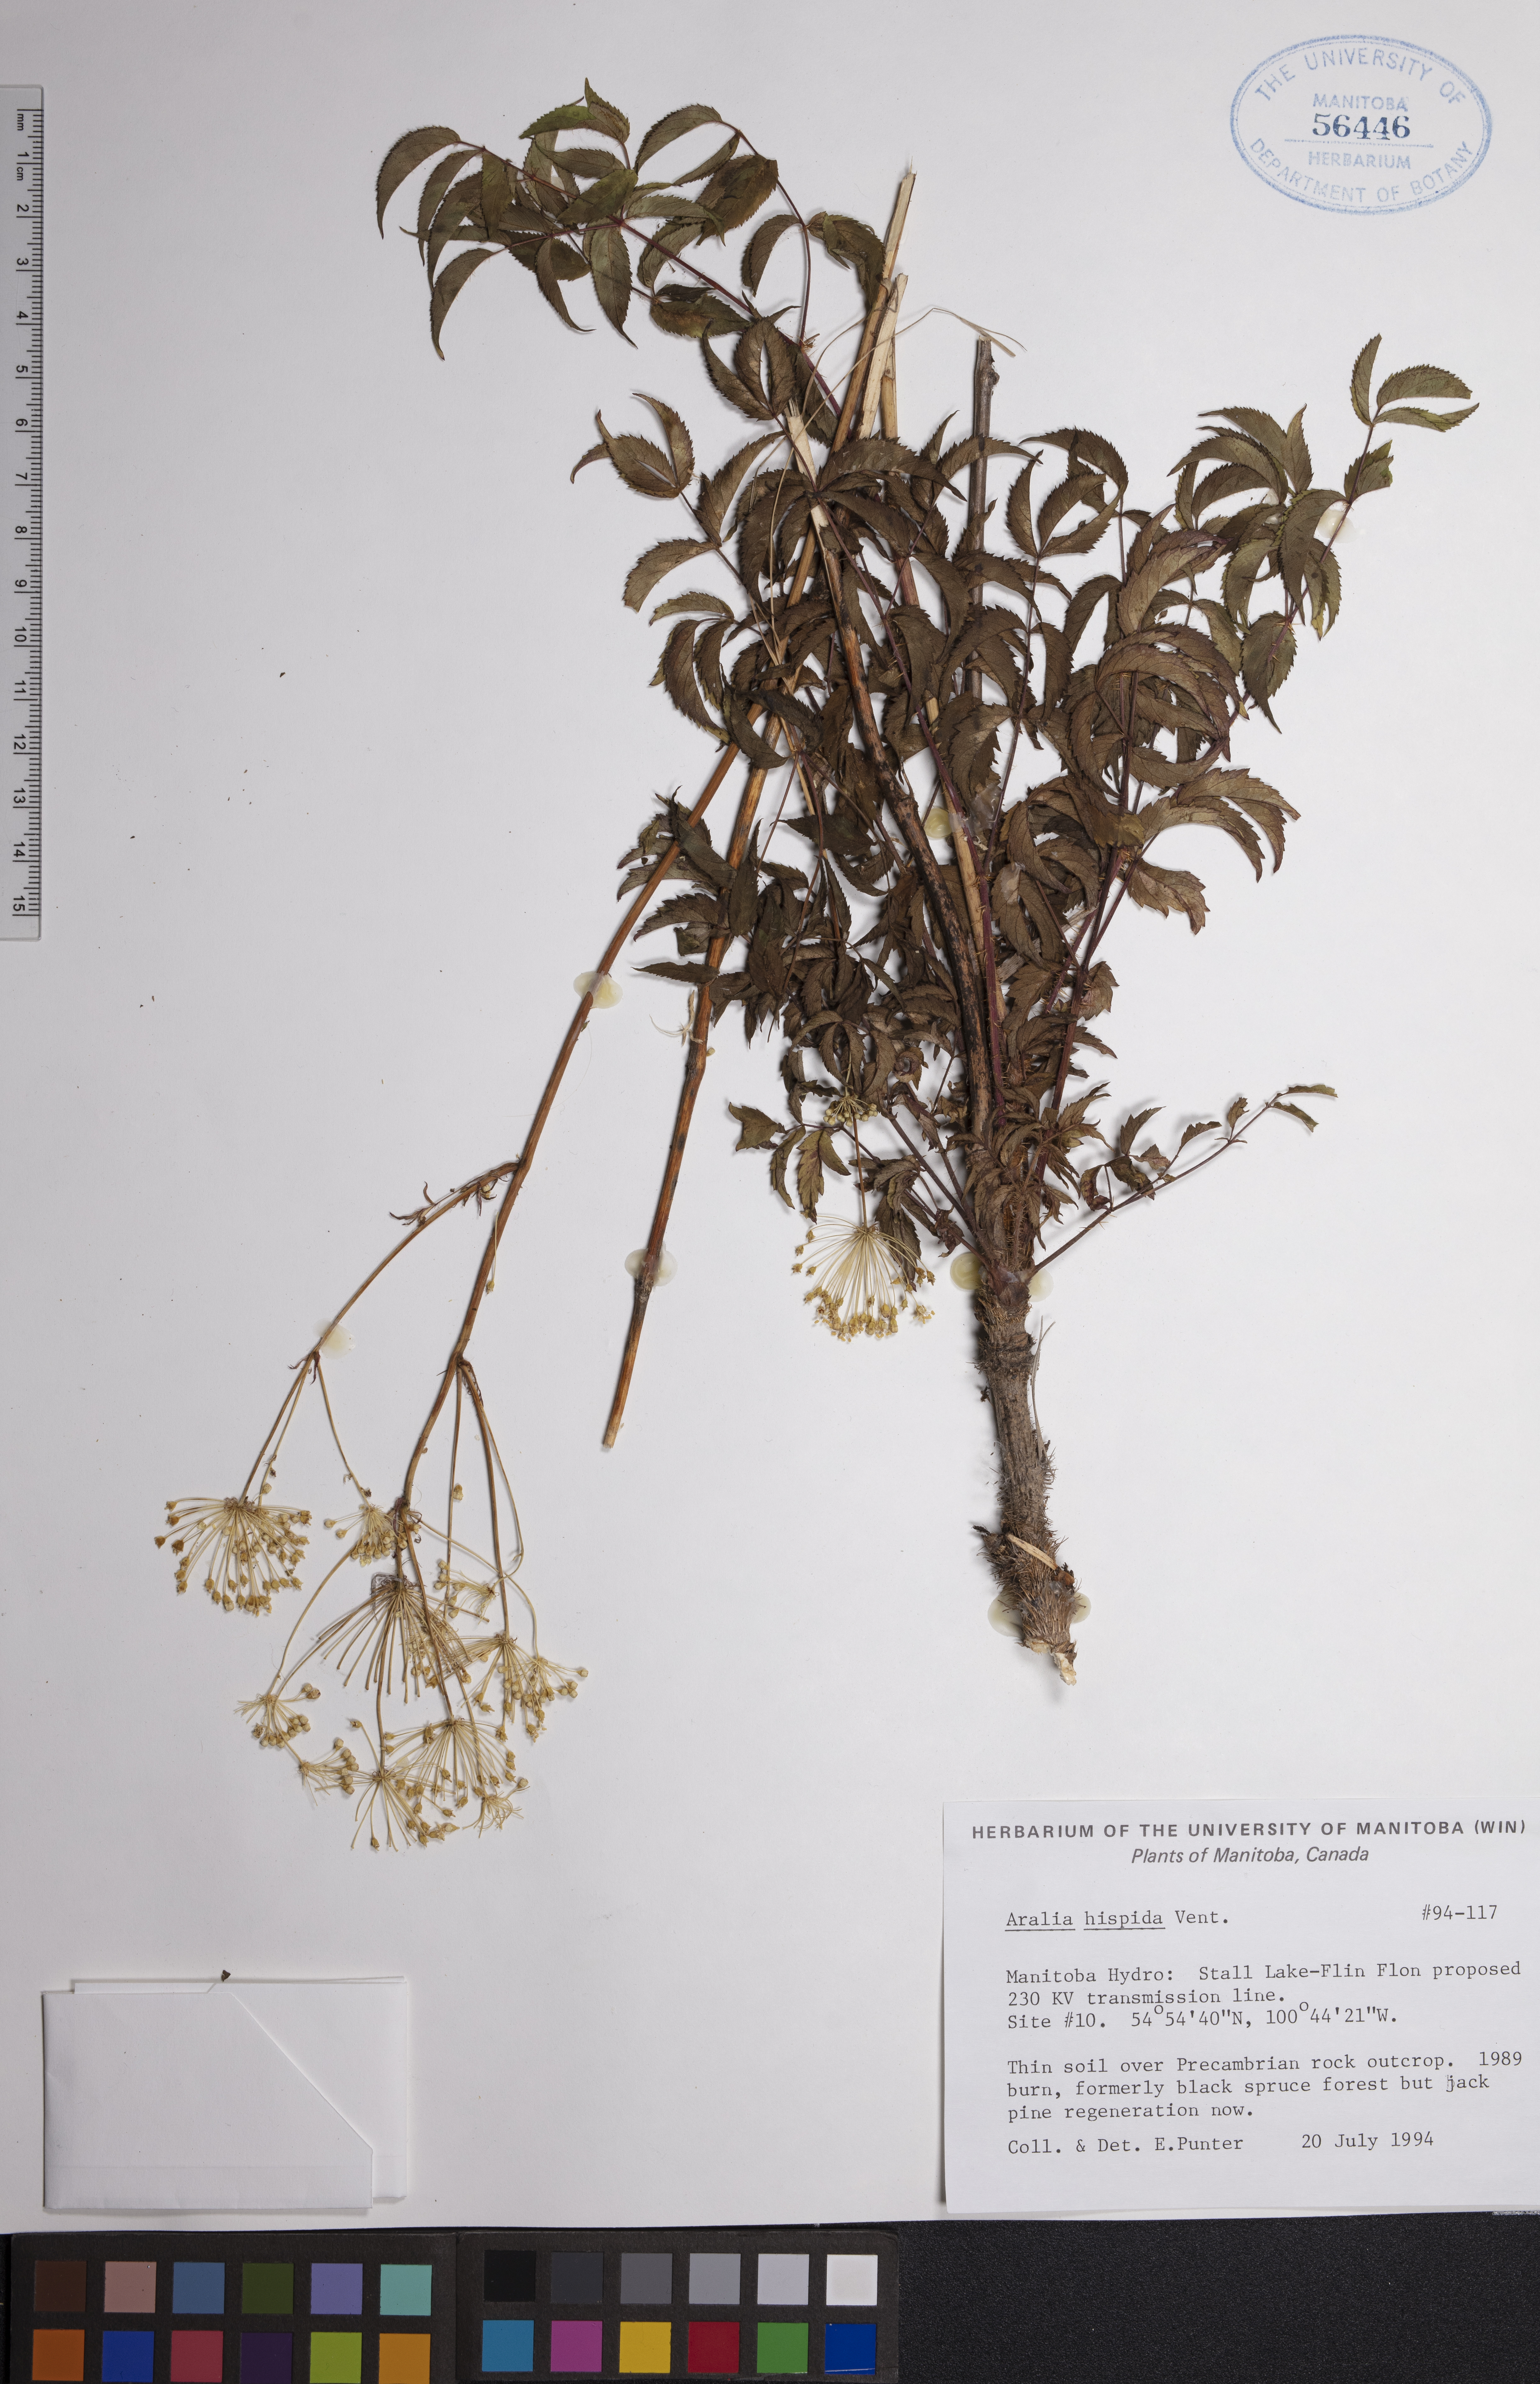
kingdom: Plantae
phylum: Tracheophyta
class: Magnoliopsida
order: Apiales
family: Araliaceae
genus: Aralia
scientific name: Aralia hispida
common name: Bristly sarsaparilla
